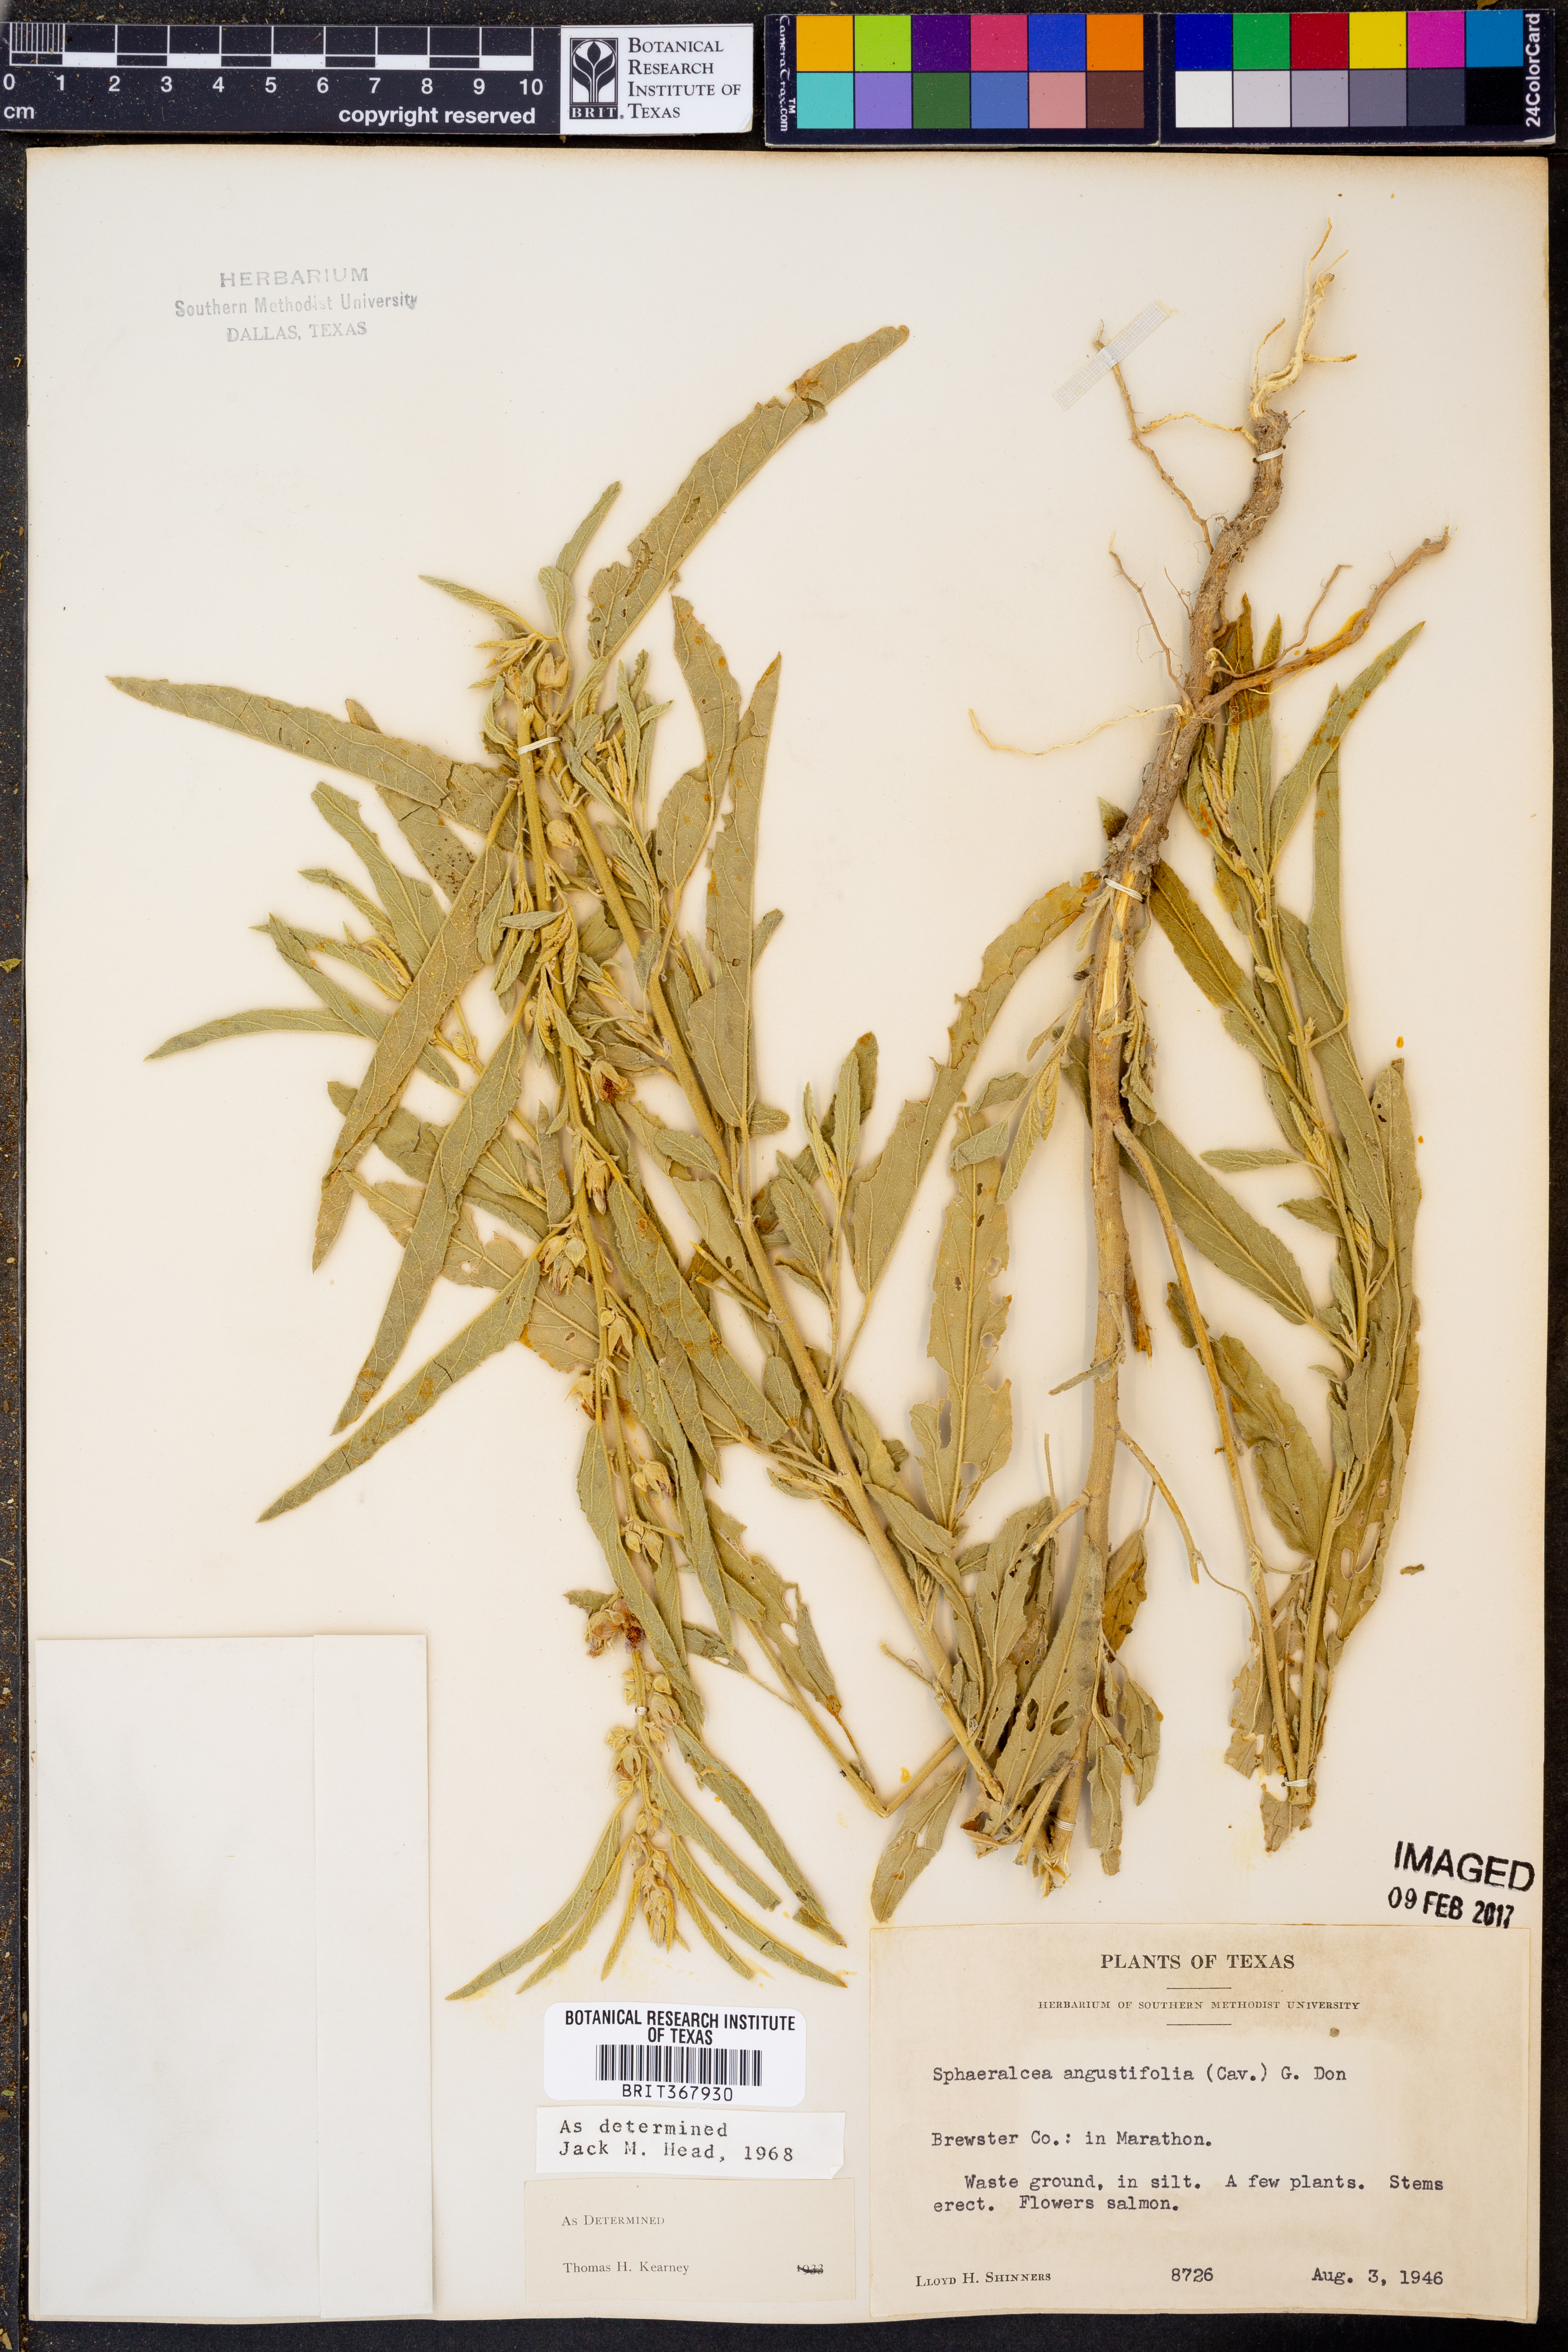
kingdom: Plantae
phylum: Tracheophyta
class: Magnoliopsida
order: Malvales
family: Malvaceae
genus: Sphaeralcea
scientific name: Sphaeralcea angustifolia
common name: Copper globe-mallow
